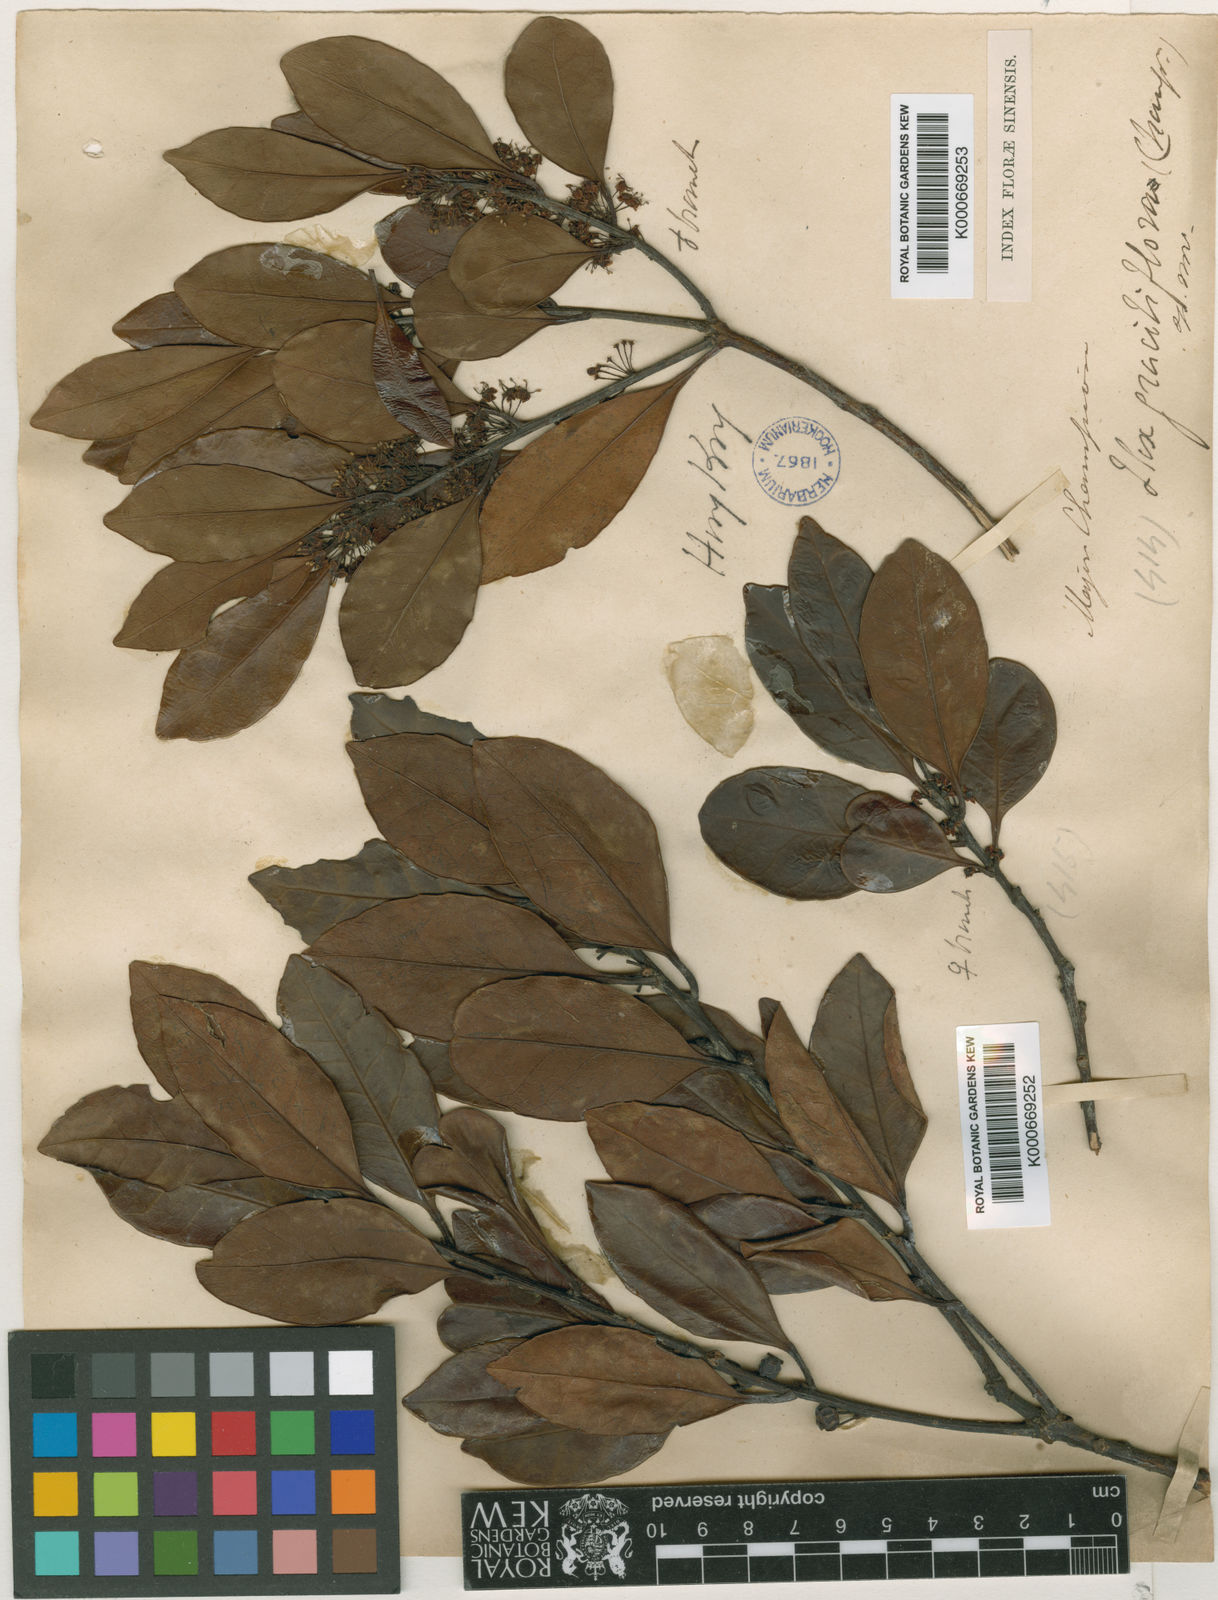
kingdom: Plantae
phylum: Tracheophyta
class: Magnoliopsida
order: Aquifoliales
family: Aquifoliaceae
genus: Ilex
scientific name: Ilex graciliflora
